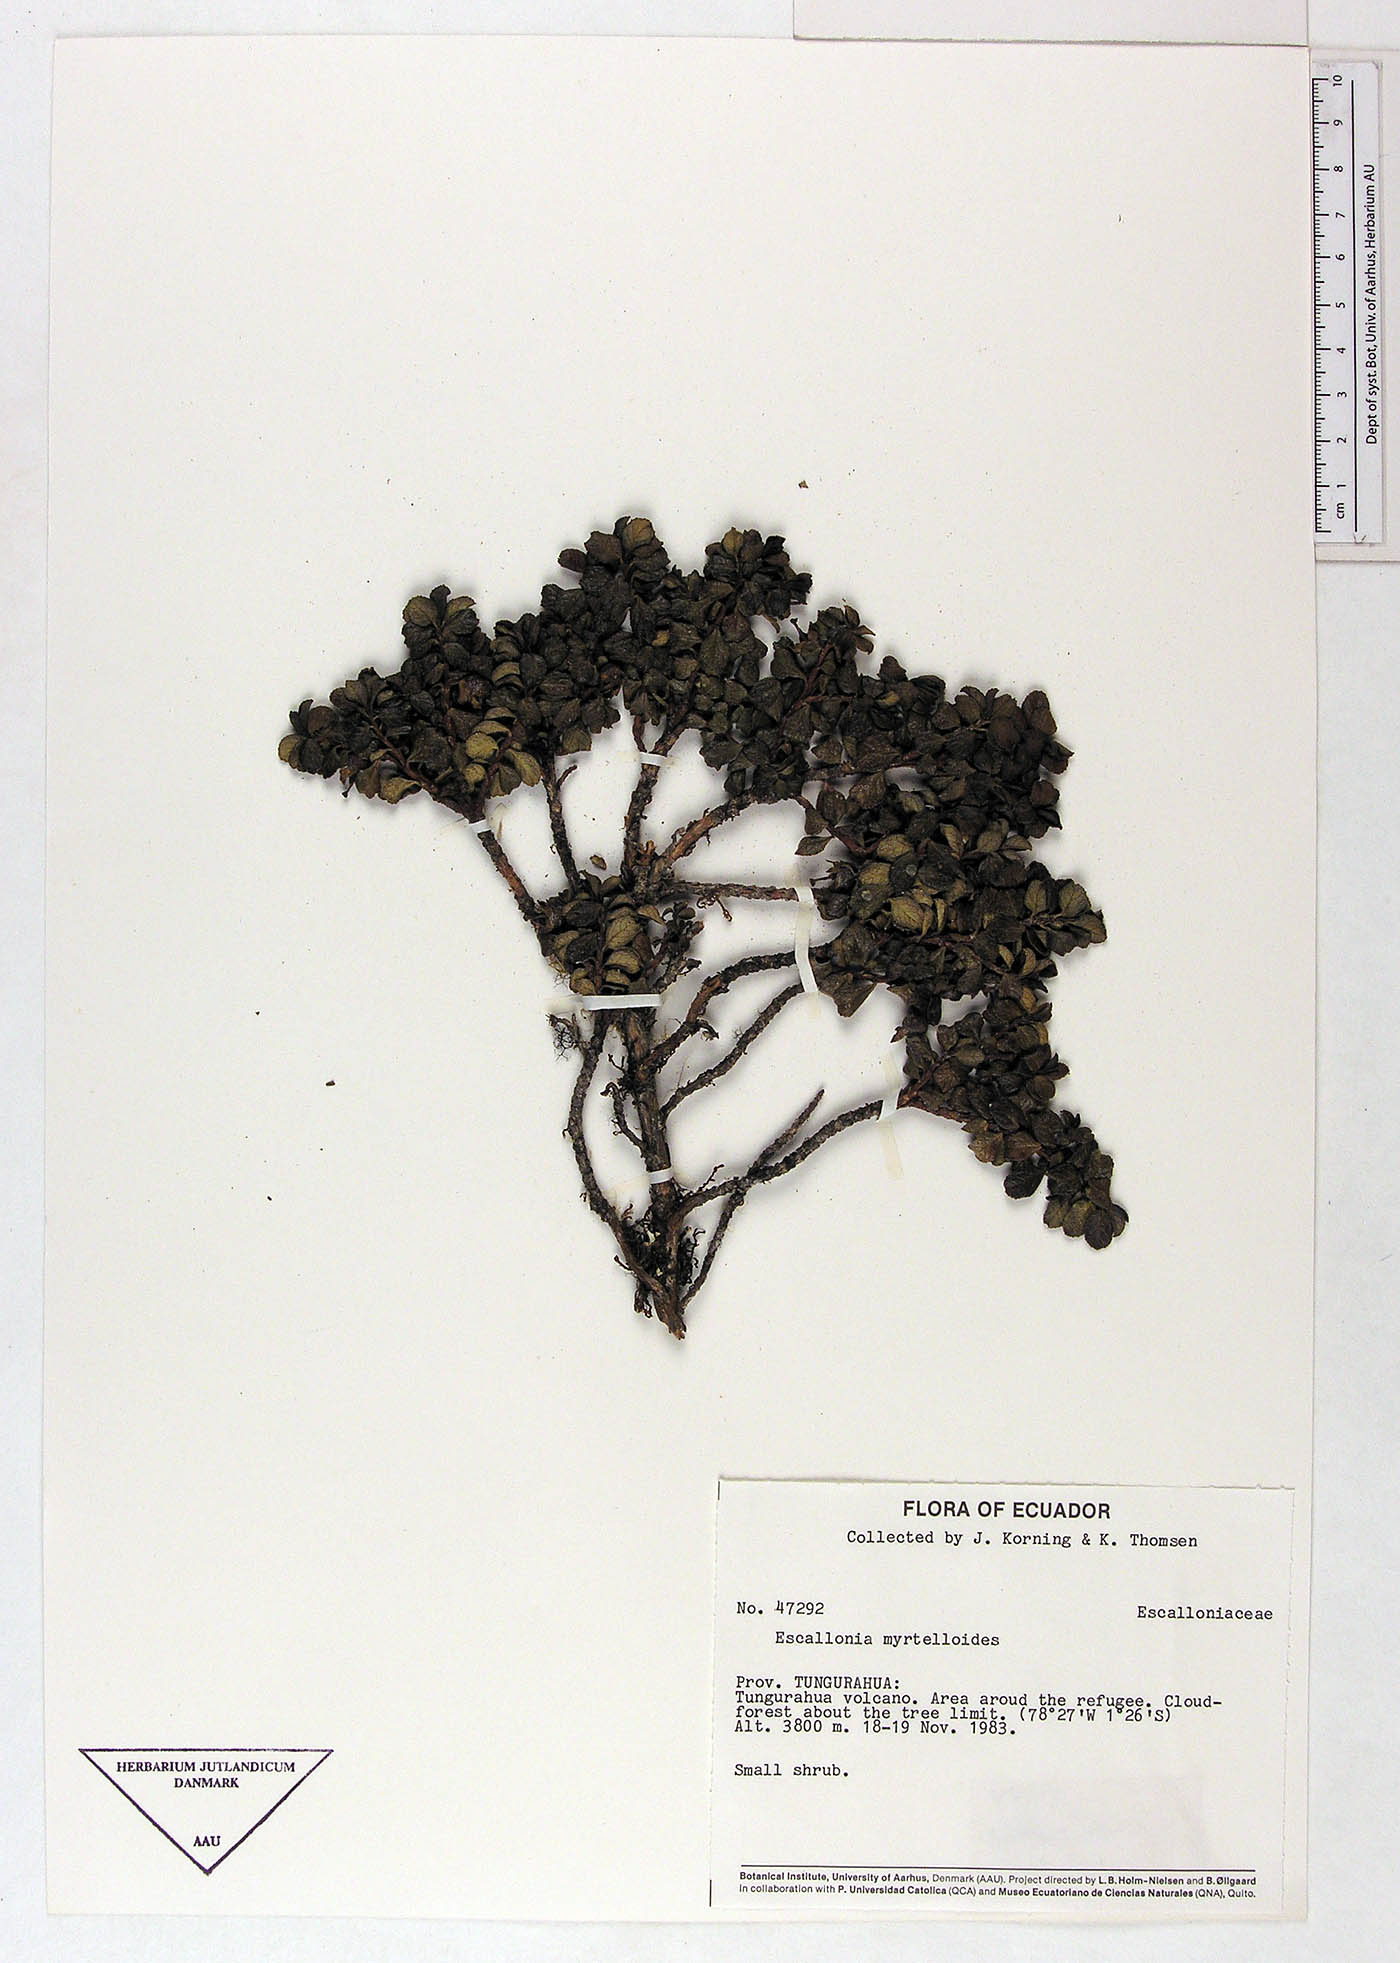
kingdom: Plantae
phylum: Tracheophyta
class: Magnoliopsida
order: Escalloniales
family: Escalloniaceae
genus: Escallonia
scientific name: Escallonia myrtilloides
